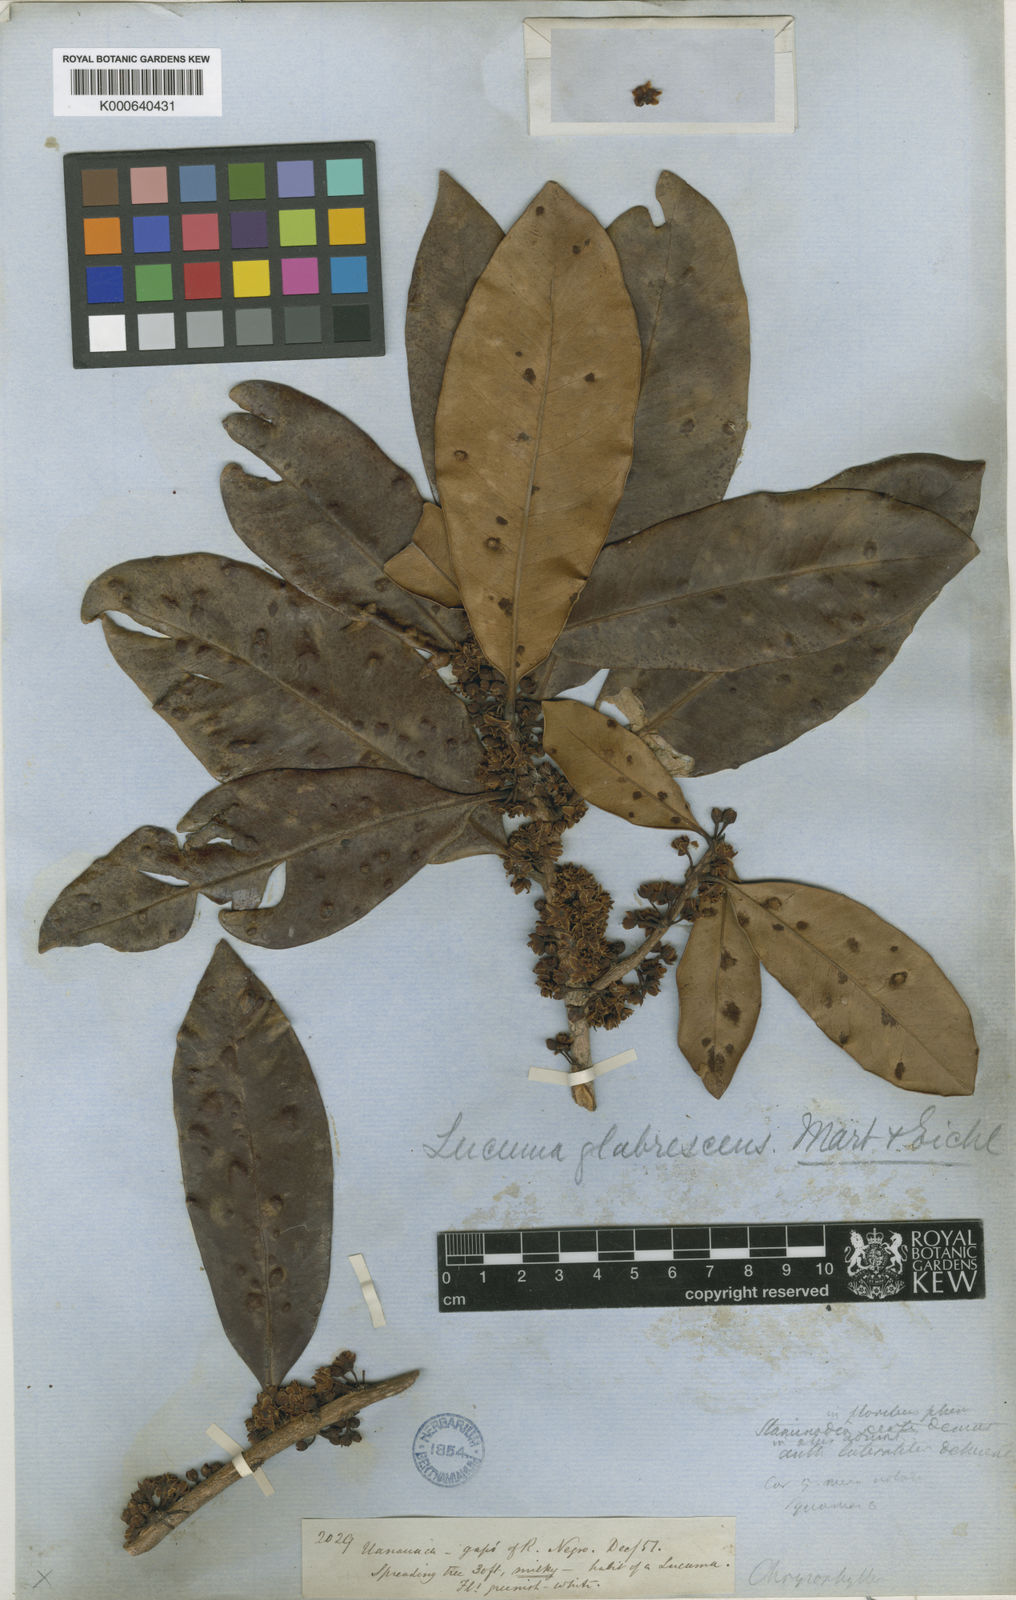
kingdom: Plantae
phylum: Tracheophyta
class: Magnoliopsida
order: Ericales
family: Sapotaceae
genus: Elaeoluma
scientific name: Elaeoluma
